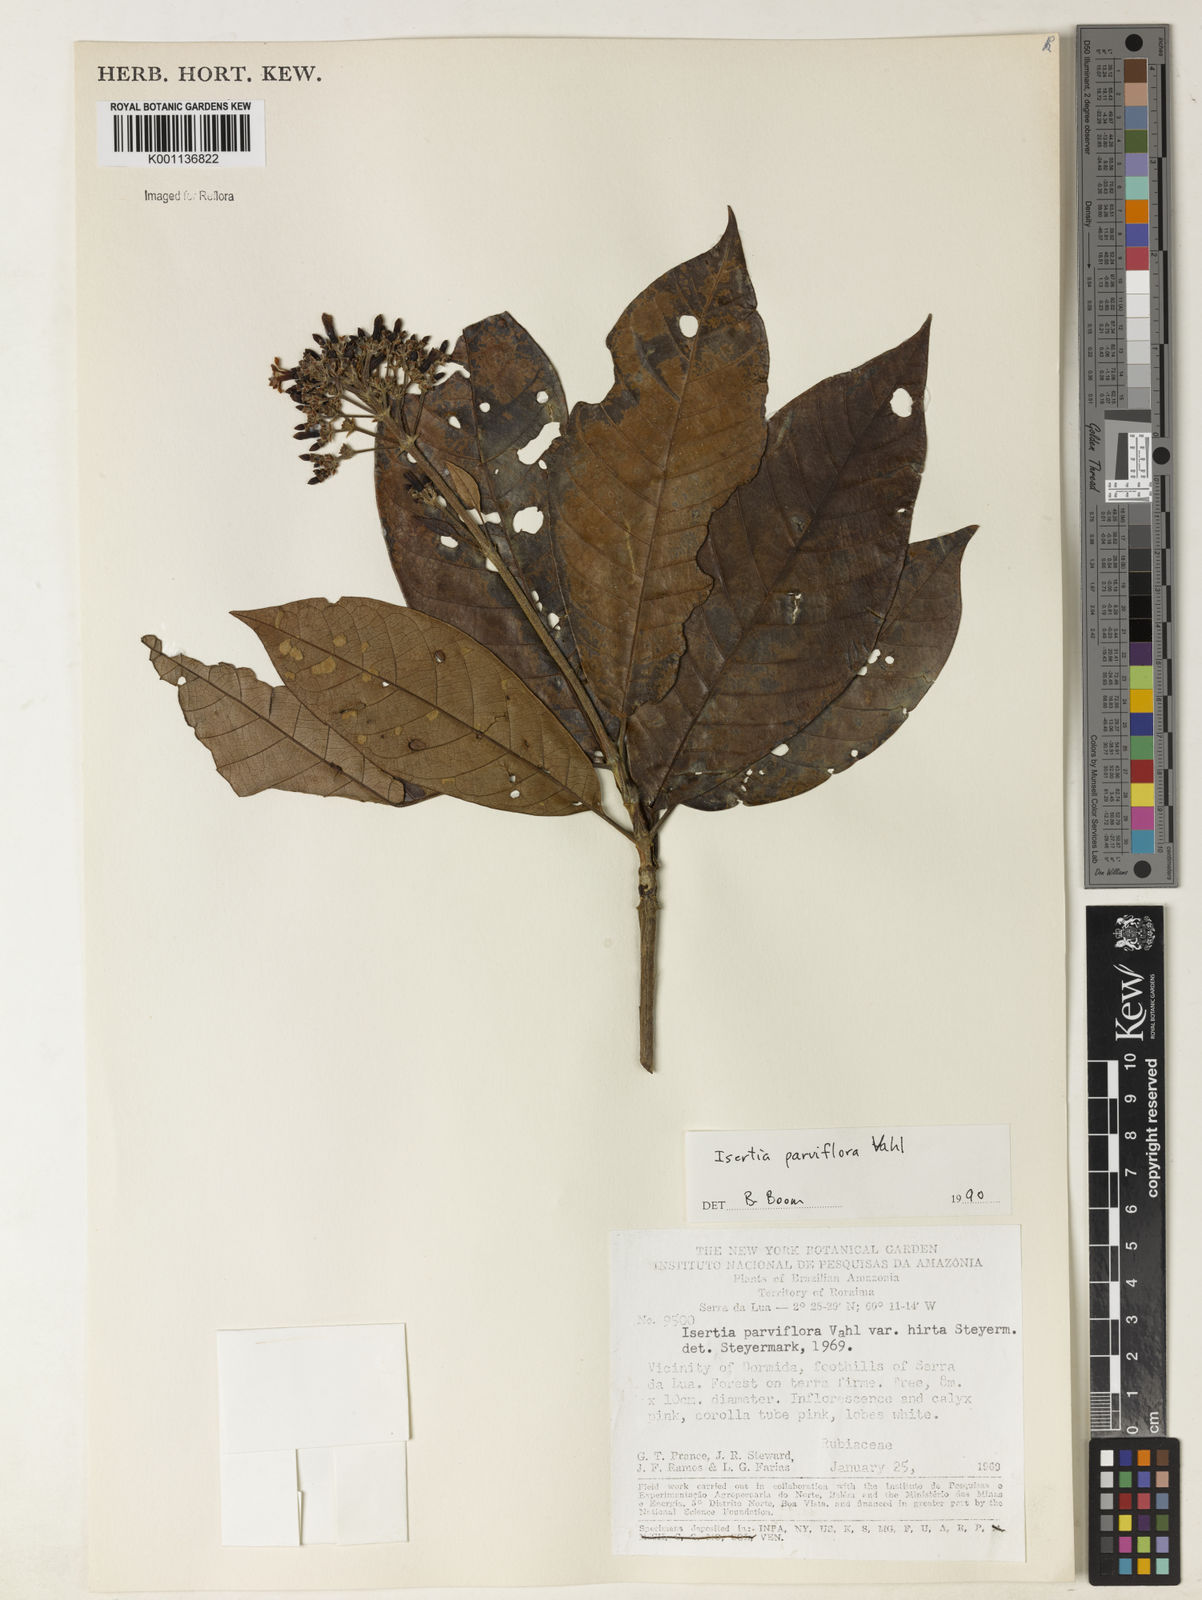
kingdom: Plantae
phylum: Tracheophyta
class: Magnoliopsida
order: Gentianales
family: Rubiaceae
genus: Isertia
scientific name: Isertia parviflora
